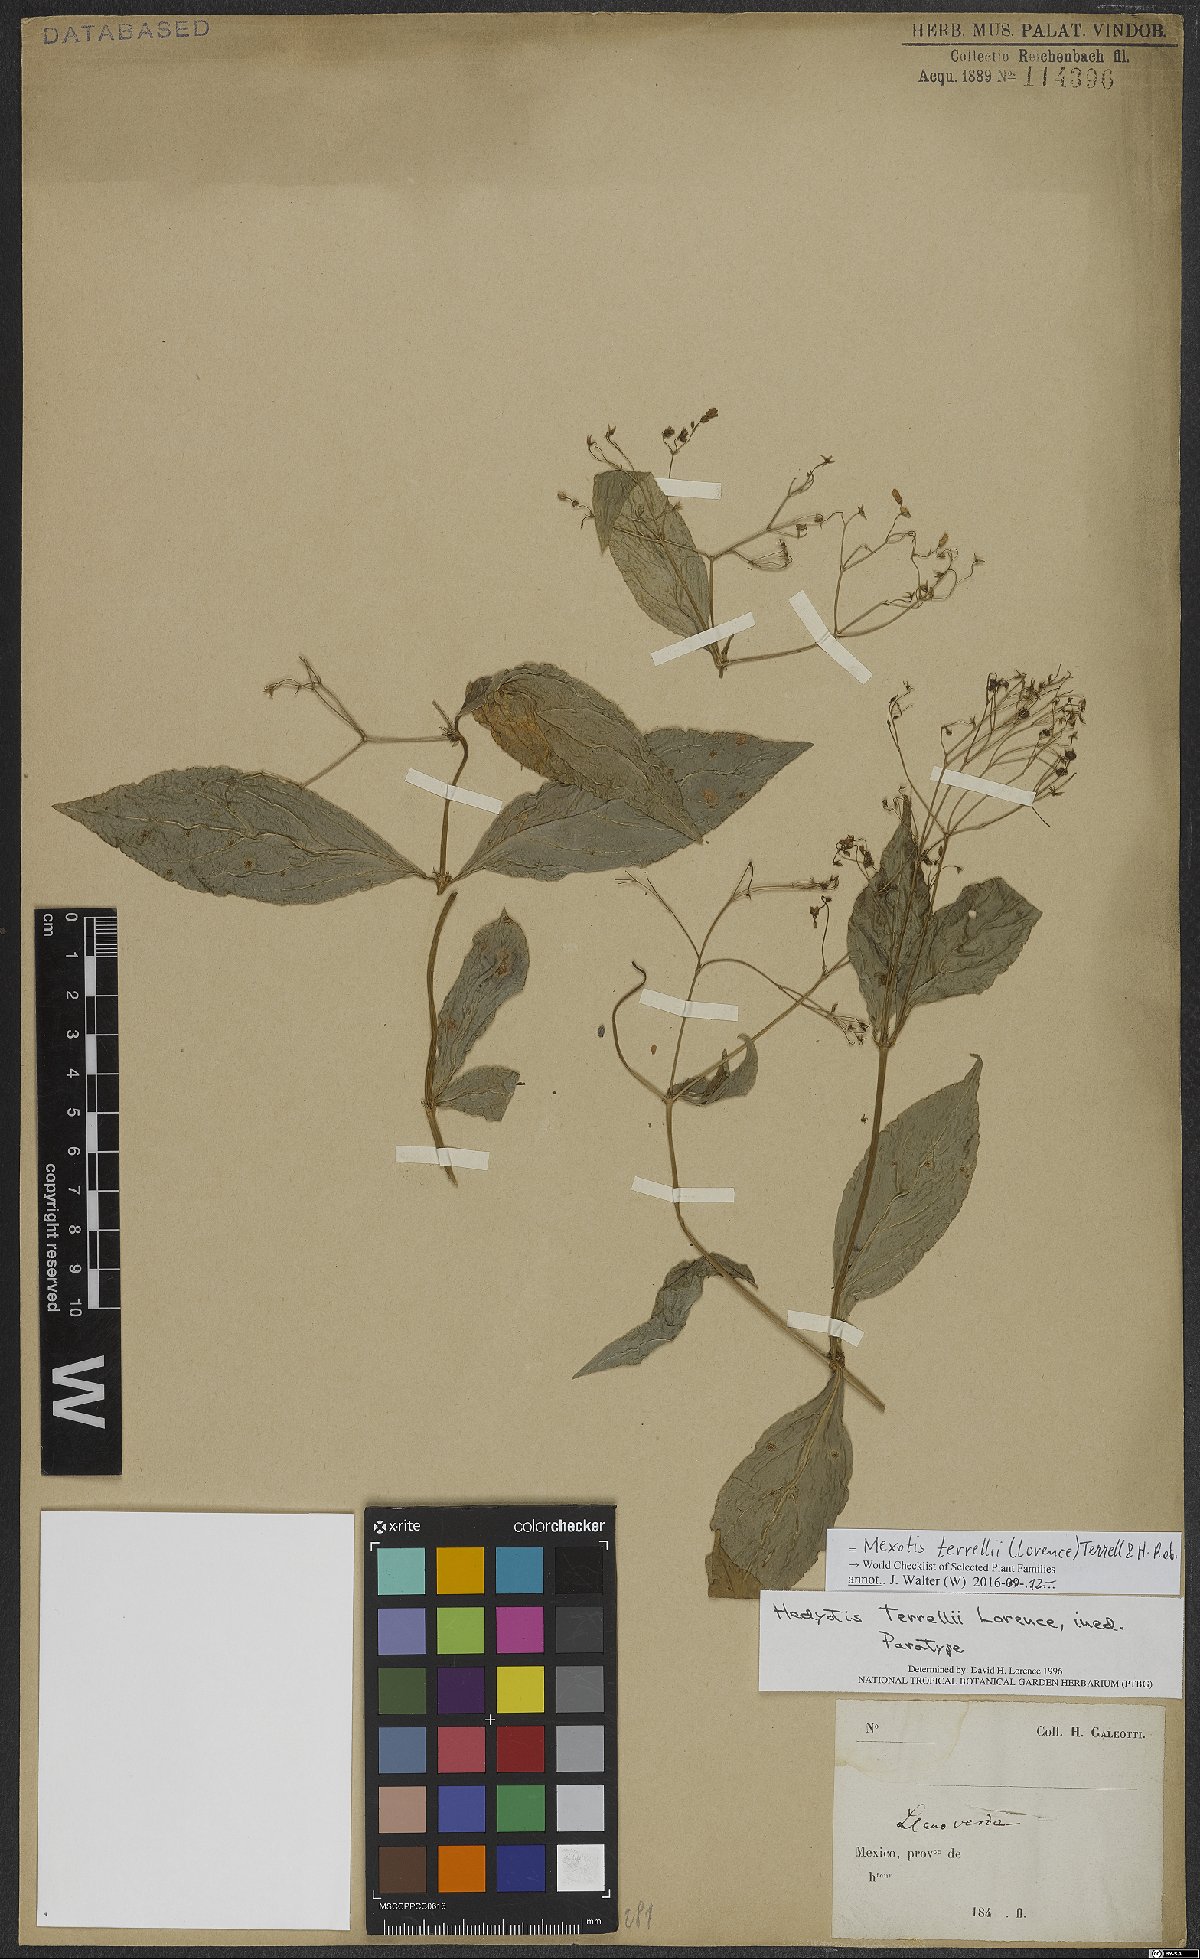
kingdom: Plantae
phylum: Tracheophyta
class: Magnoliopsida
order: Gentianales
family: Rubiaceae
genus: Mexotis
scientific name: Mexotis terrellii
